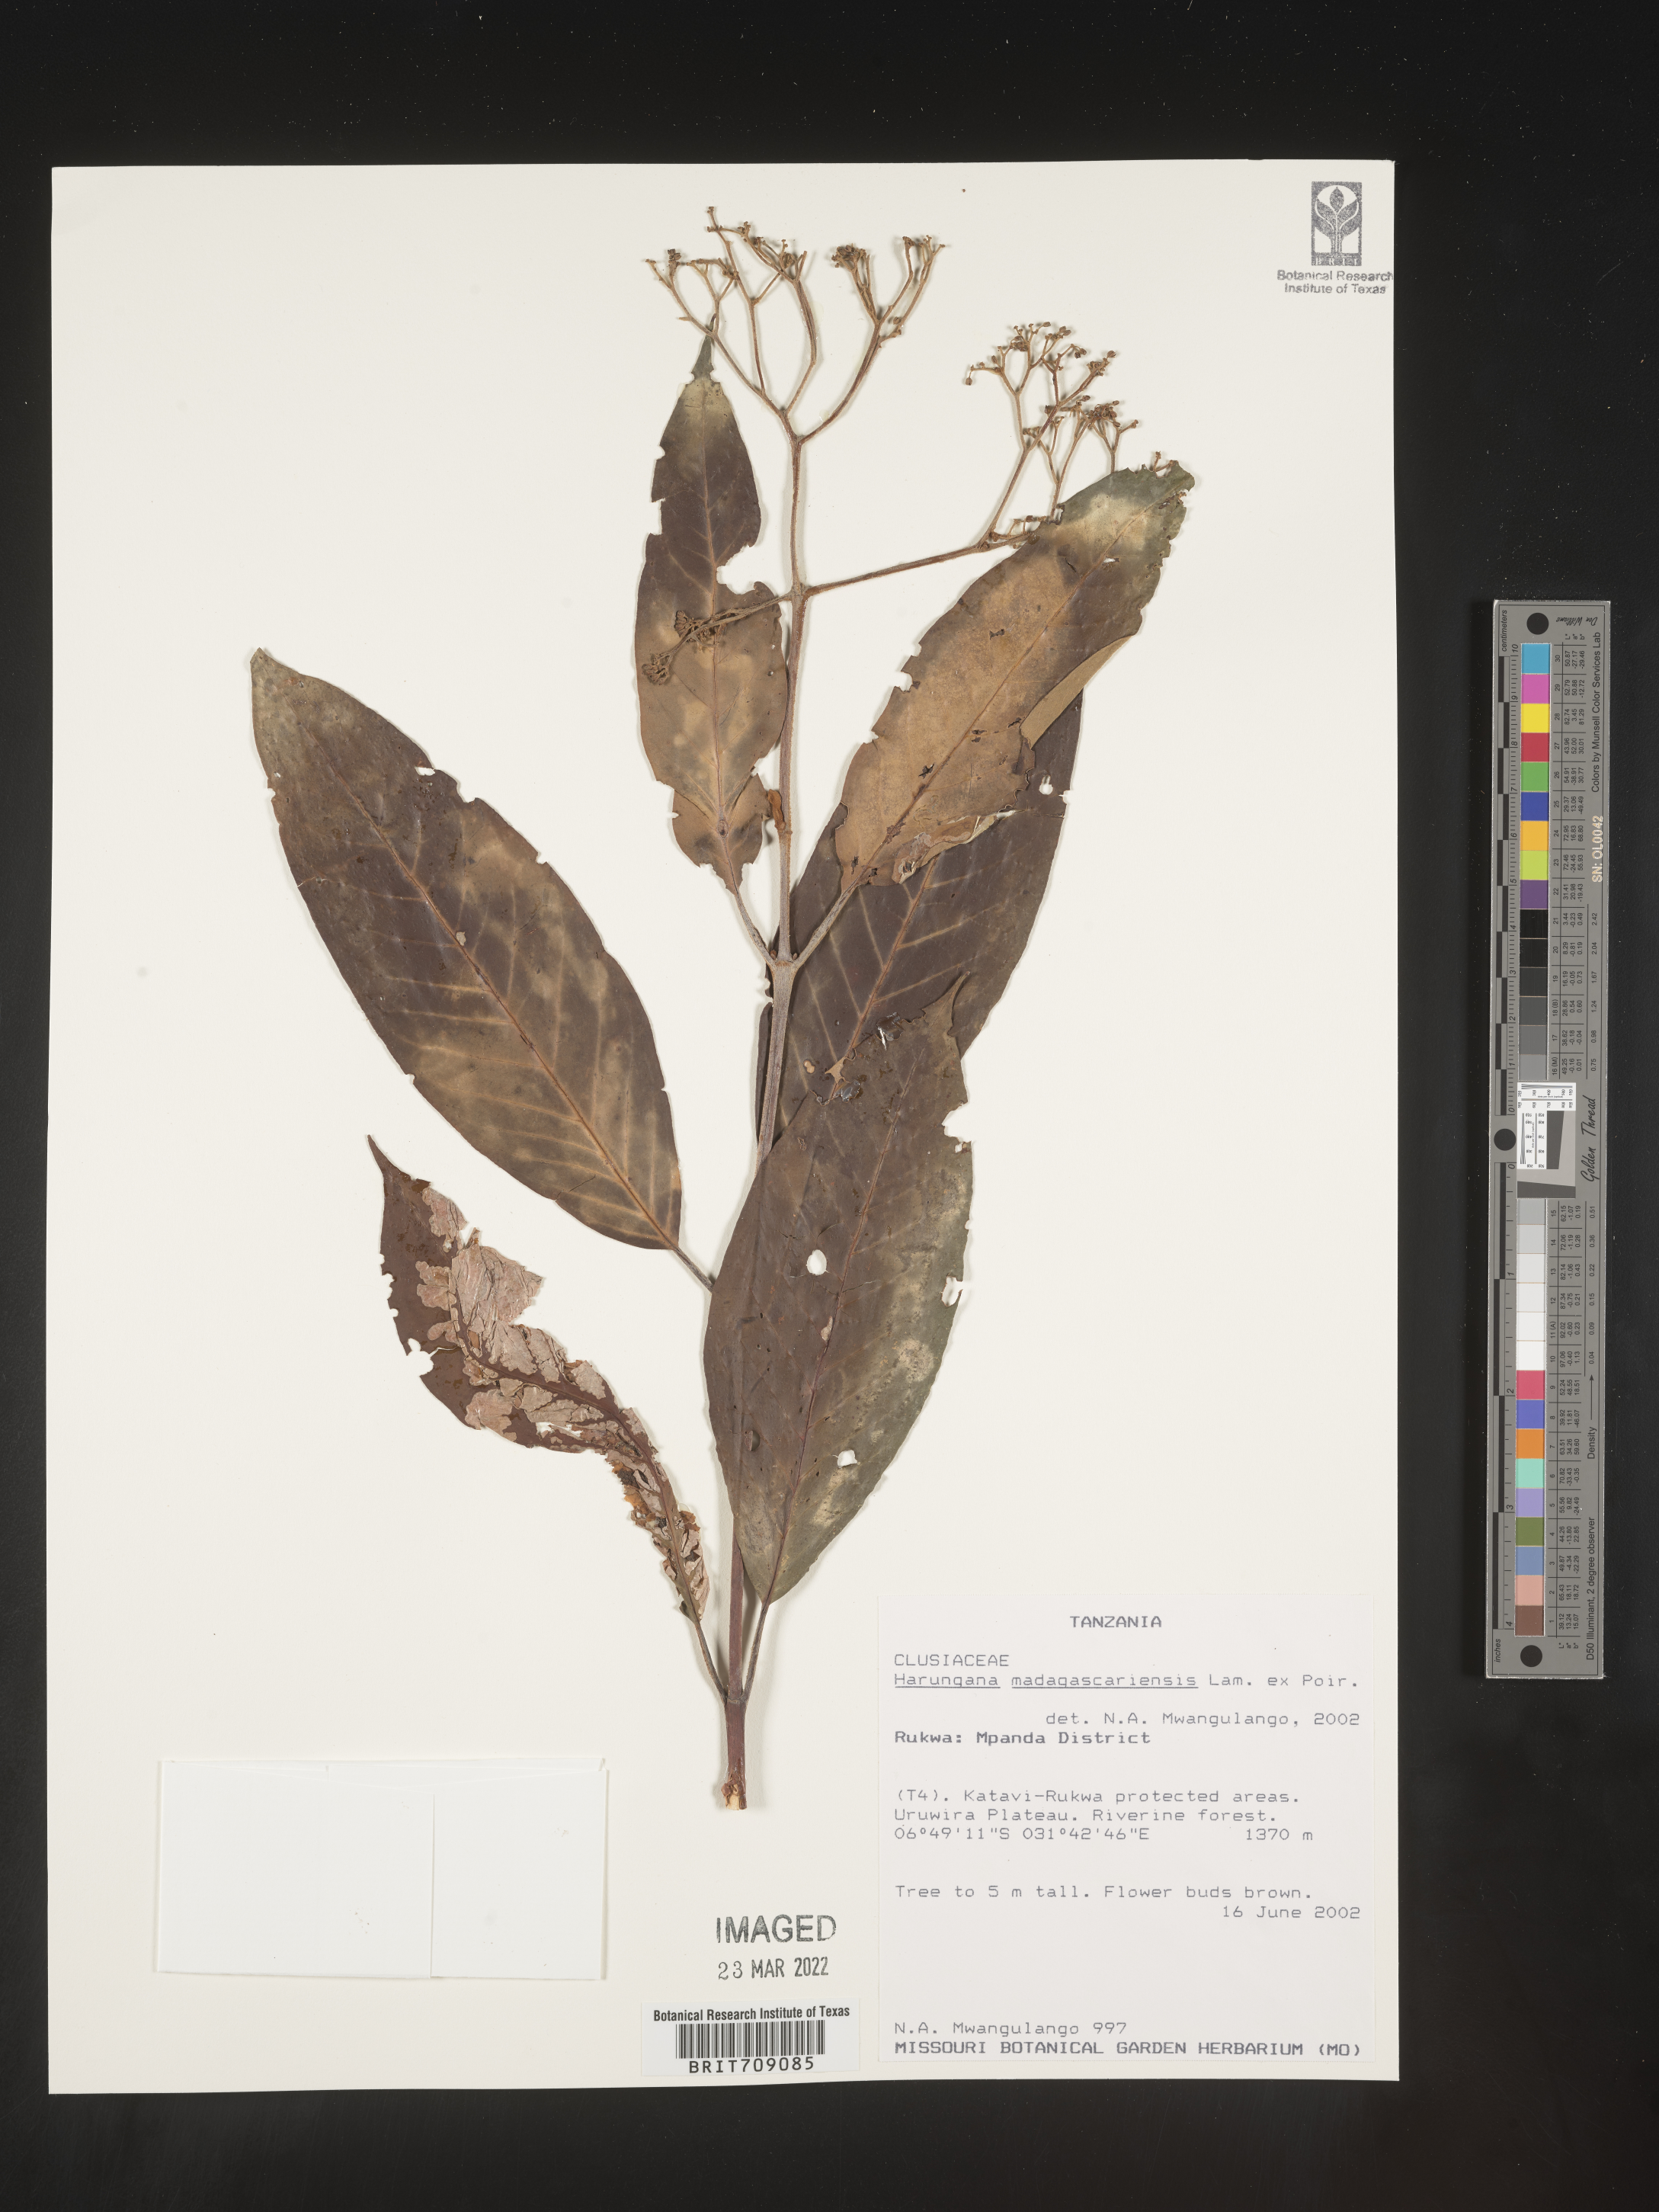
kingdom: Plantae
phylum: Tracheophyta
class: Magnoliopsida
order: Malpighiales
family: Hypericaceae
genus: Harungana
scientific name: Harungana
